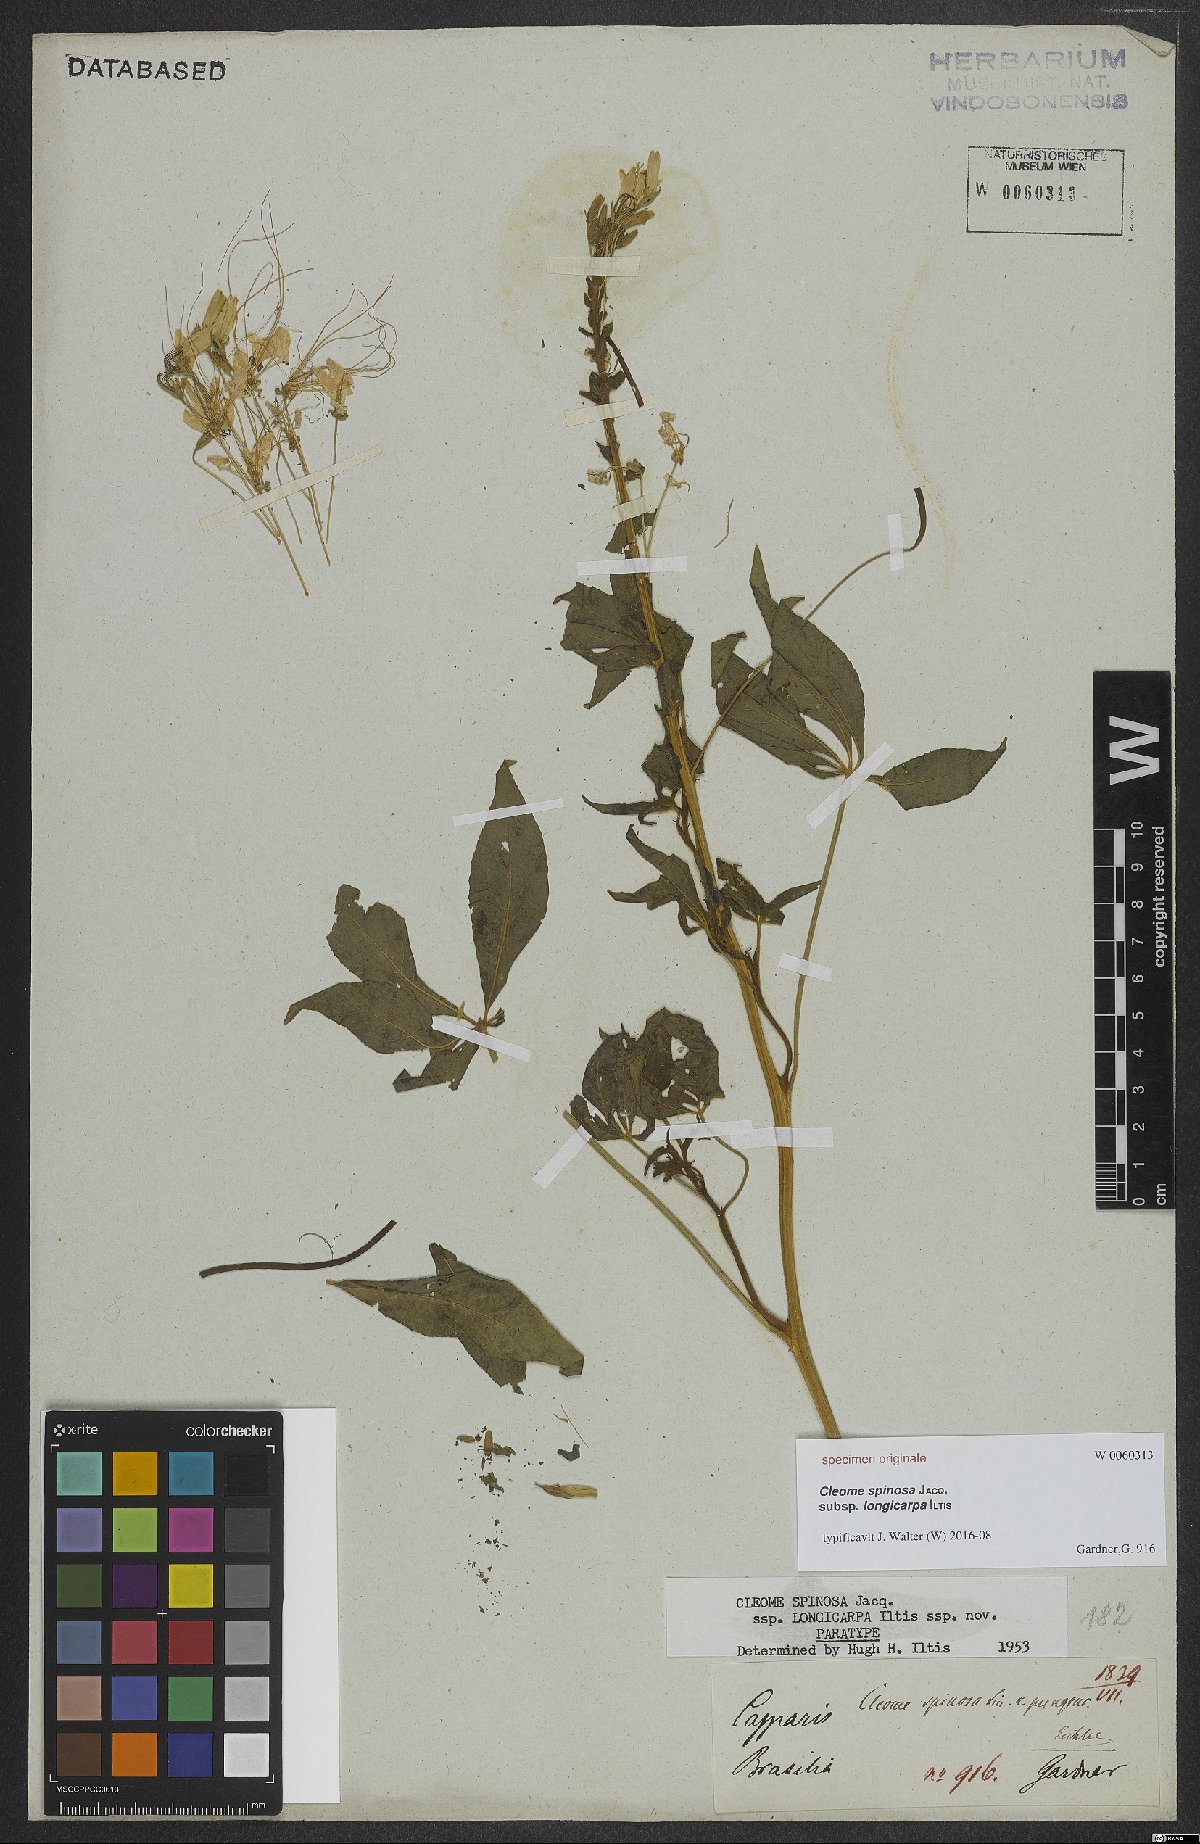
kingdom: Plantae
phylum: Tracheophyta
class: Magnoliopsida
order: Brassicales
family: Cleomaceae
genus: Tarenaya
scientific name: Tarenaya
